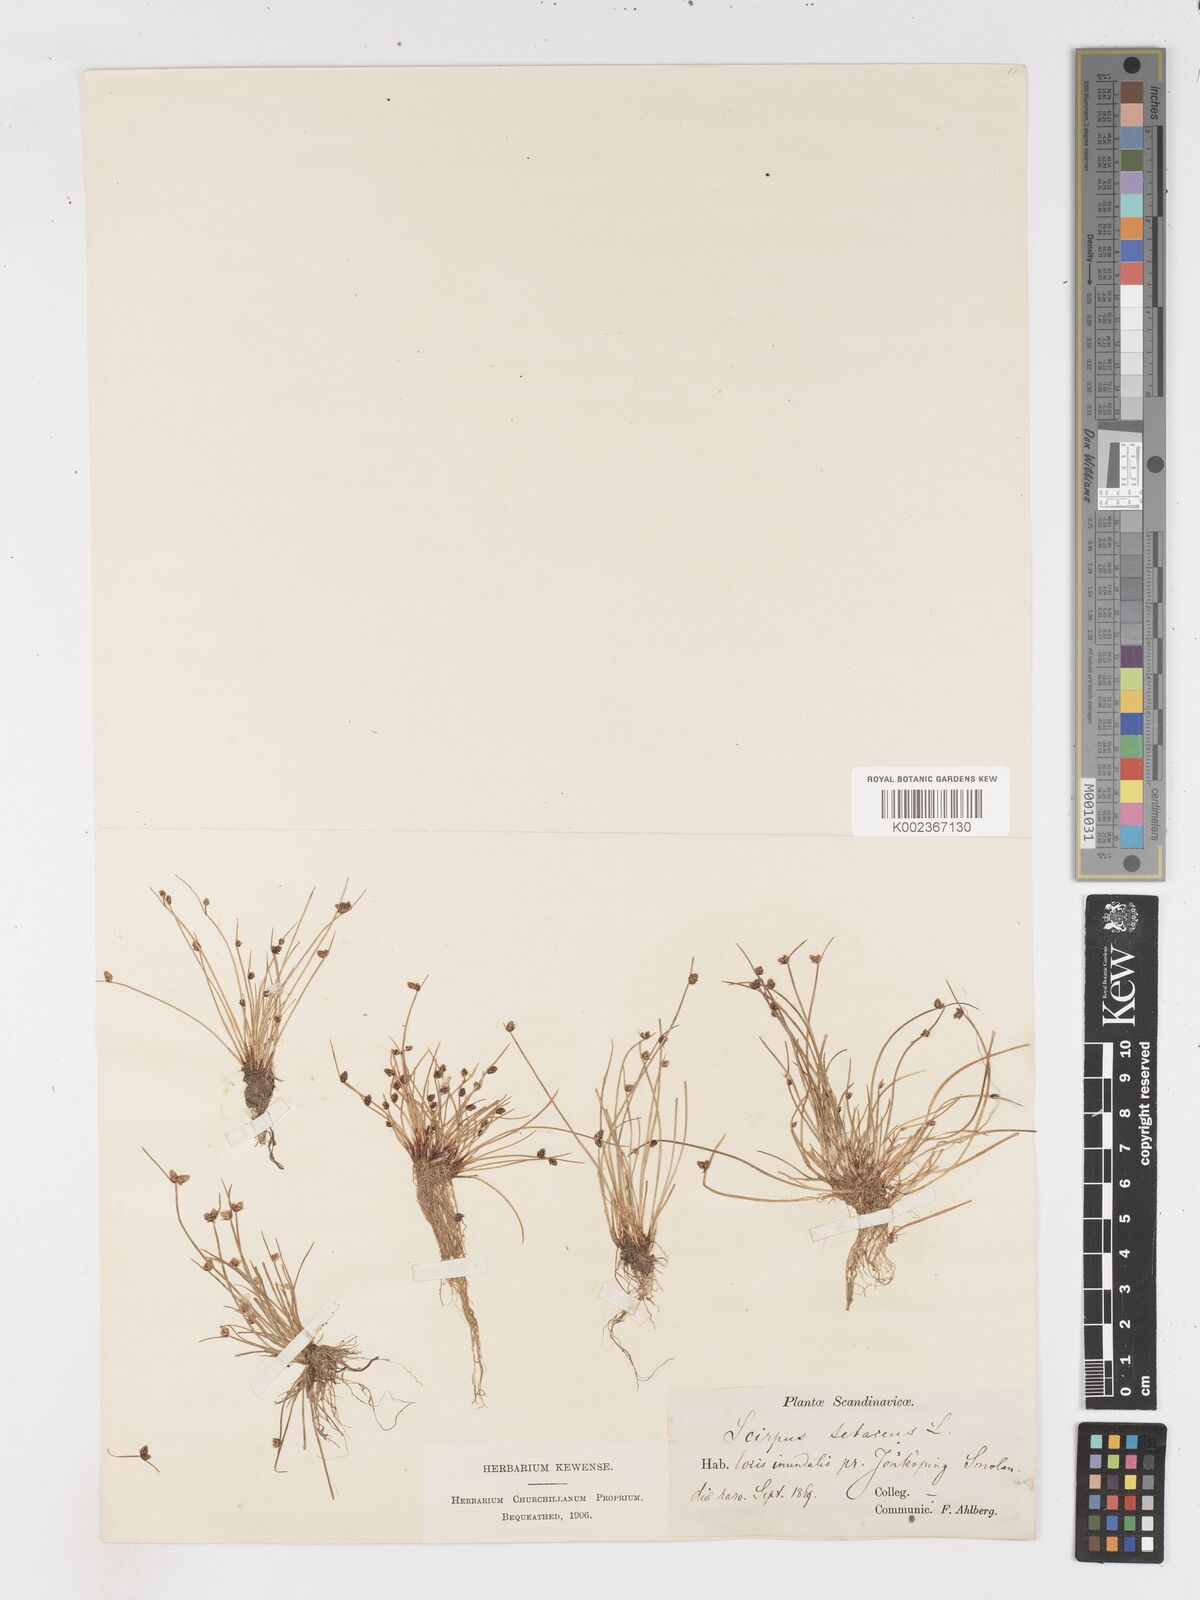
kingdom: Plantae
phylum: Tracheophyta
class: Liliopsida
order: Poales
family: Cyperaceae
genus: Isolepis
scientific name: Isolepis setacea
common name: Bristle club-rush
